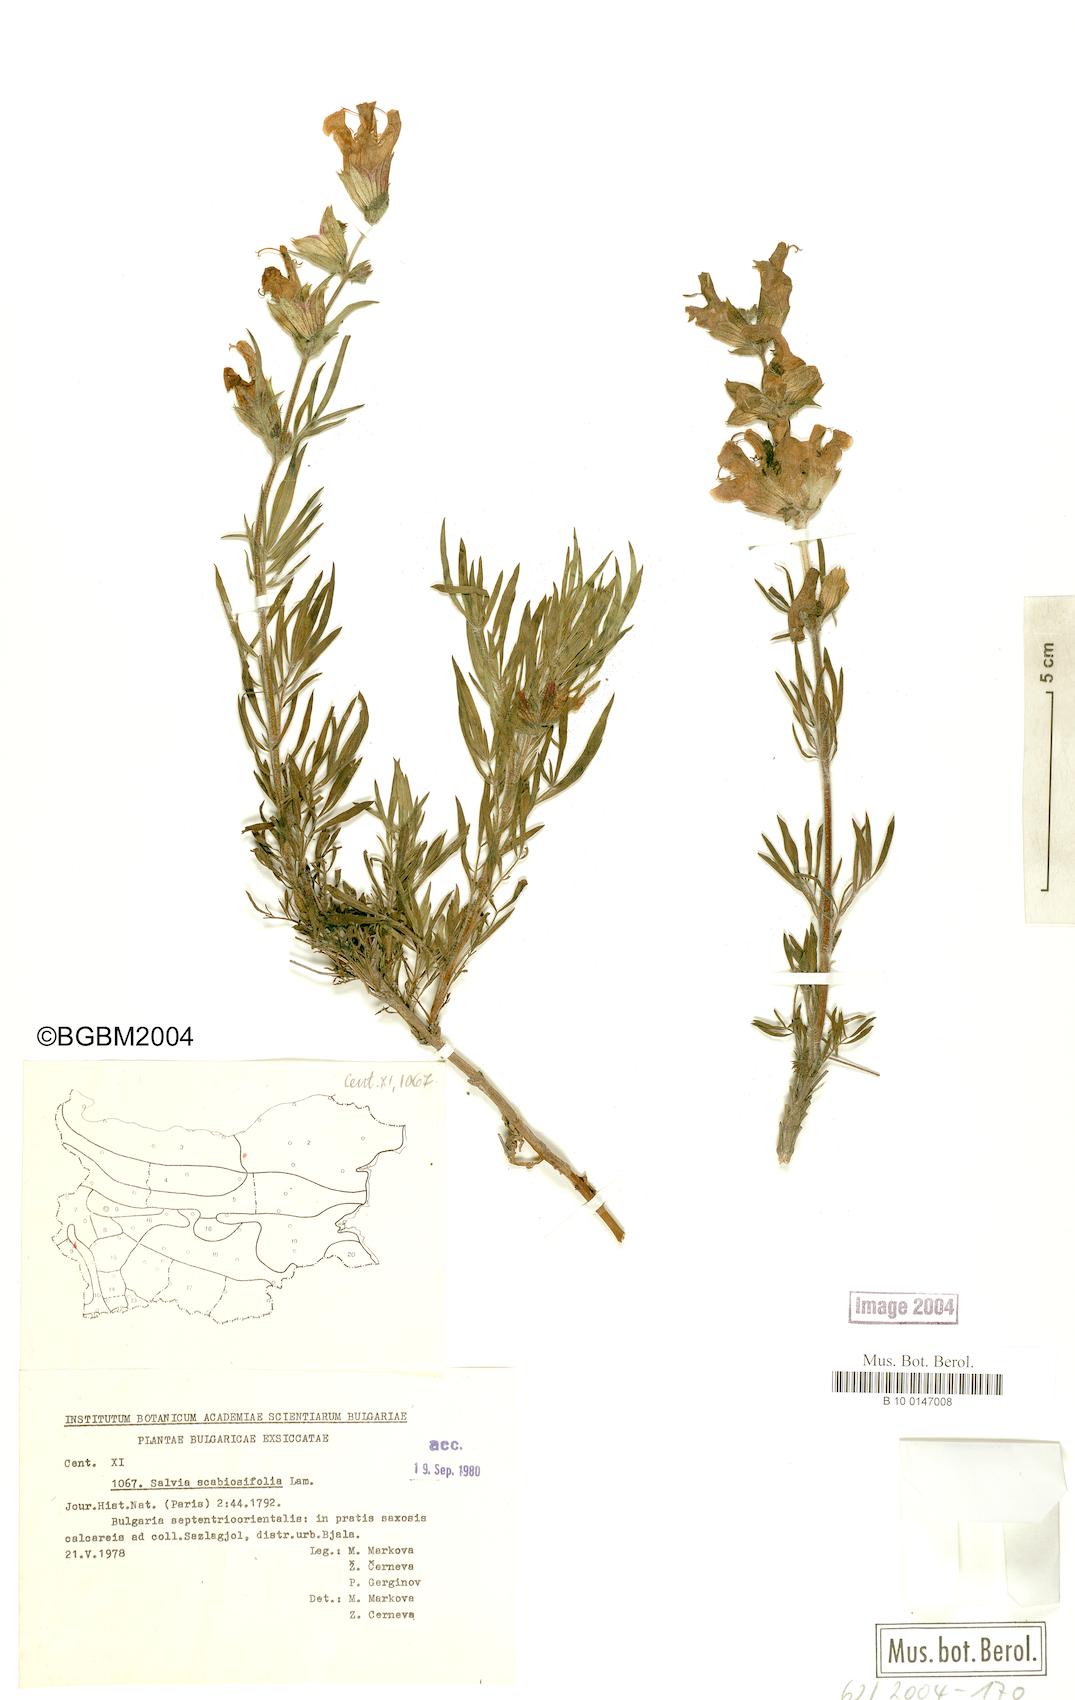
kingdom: Plantae
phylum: Tracheophyta
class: Magnoliopsida
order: Lamiales
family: Lamiaceae
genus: Salvia
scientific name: Salvia scabiosifolia
